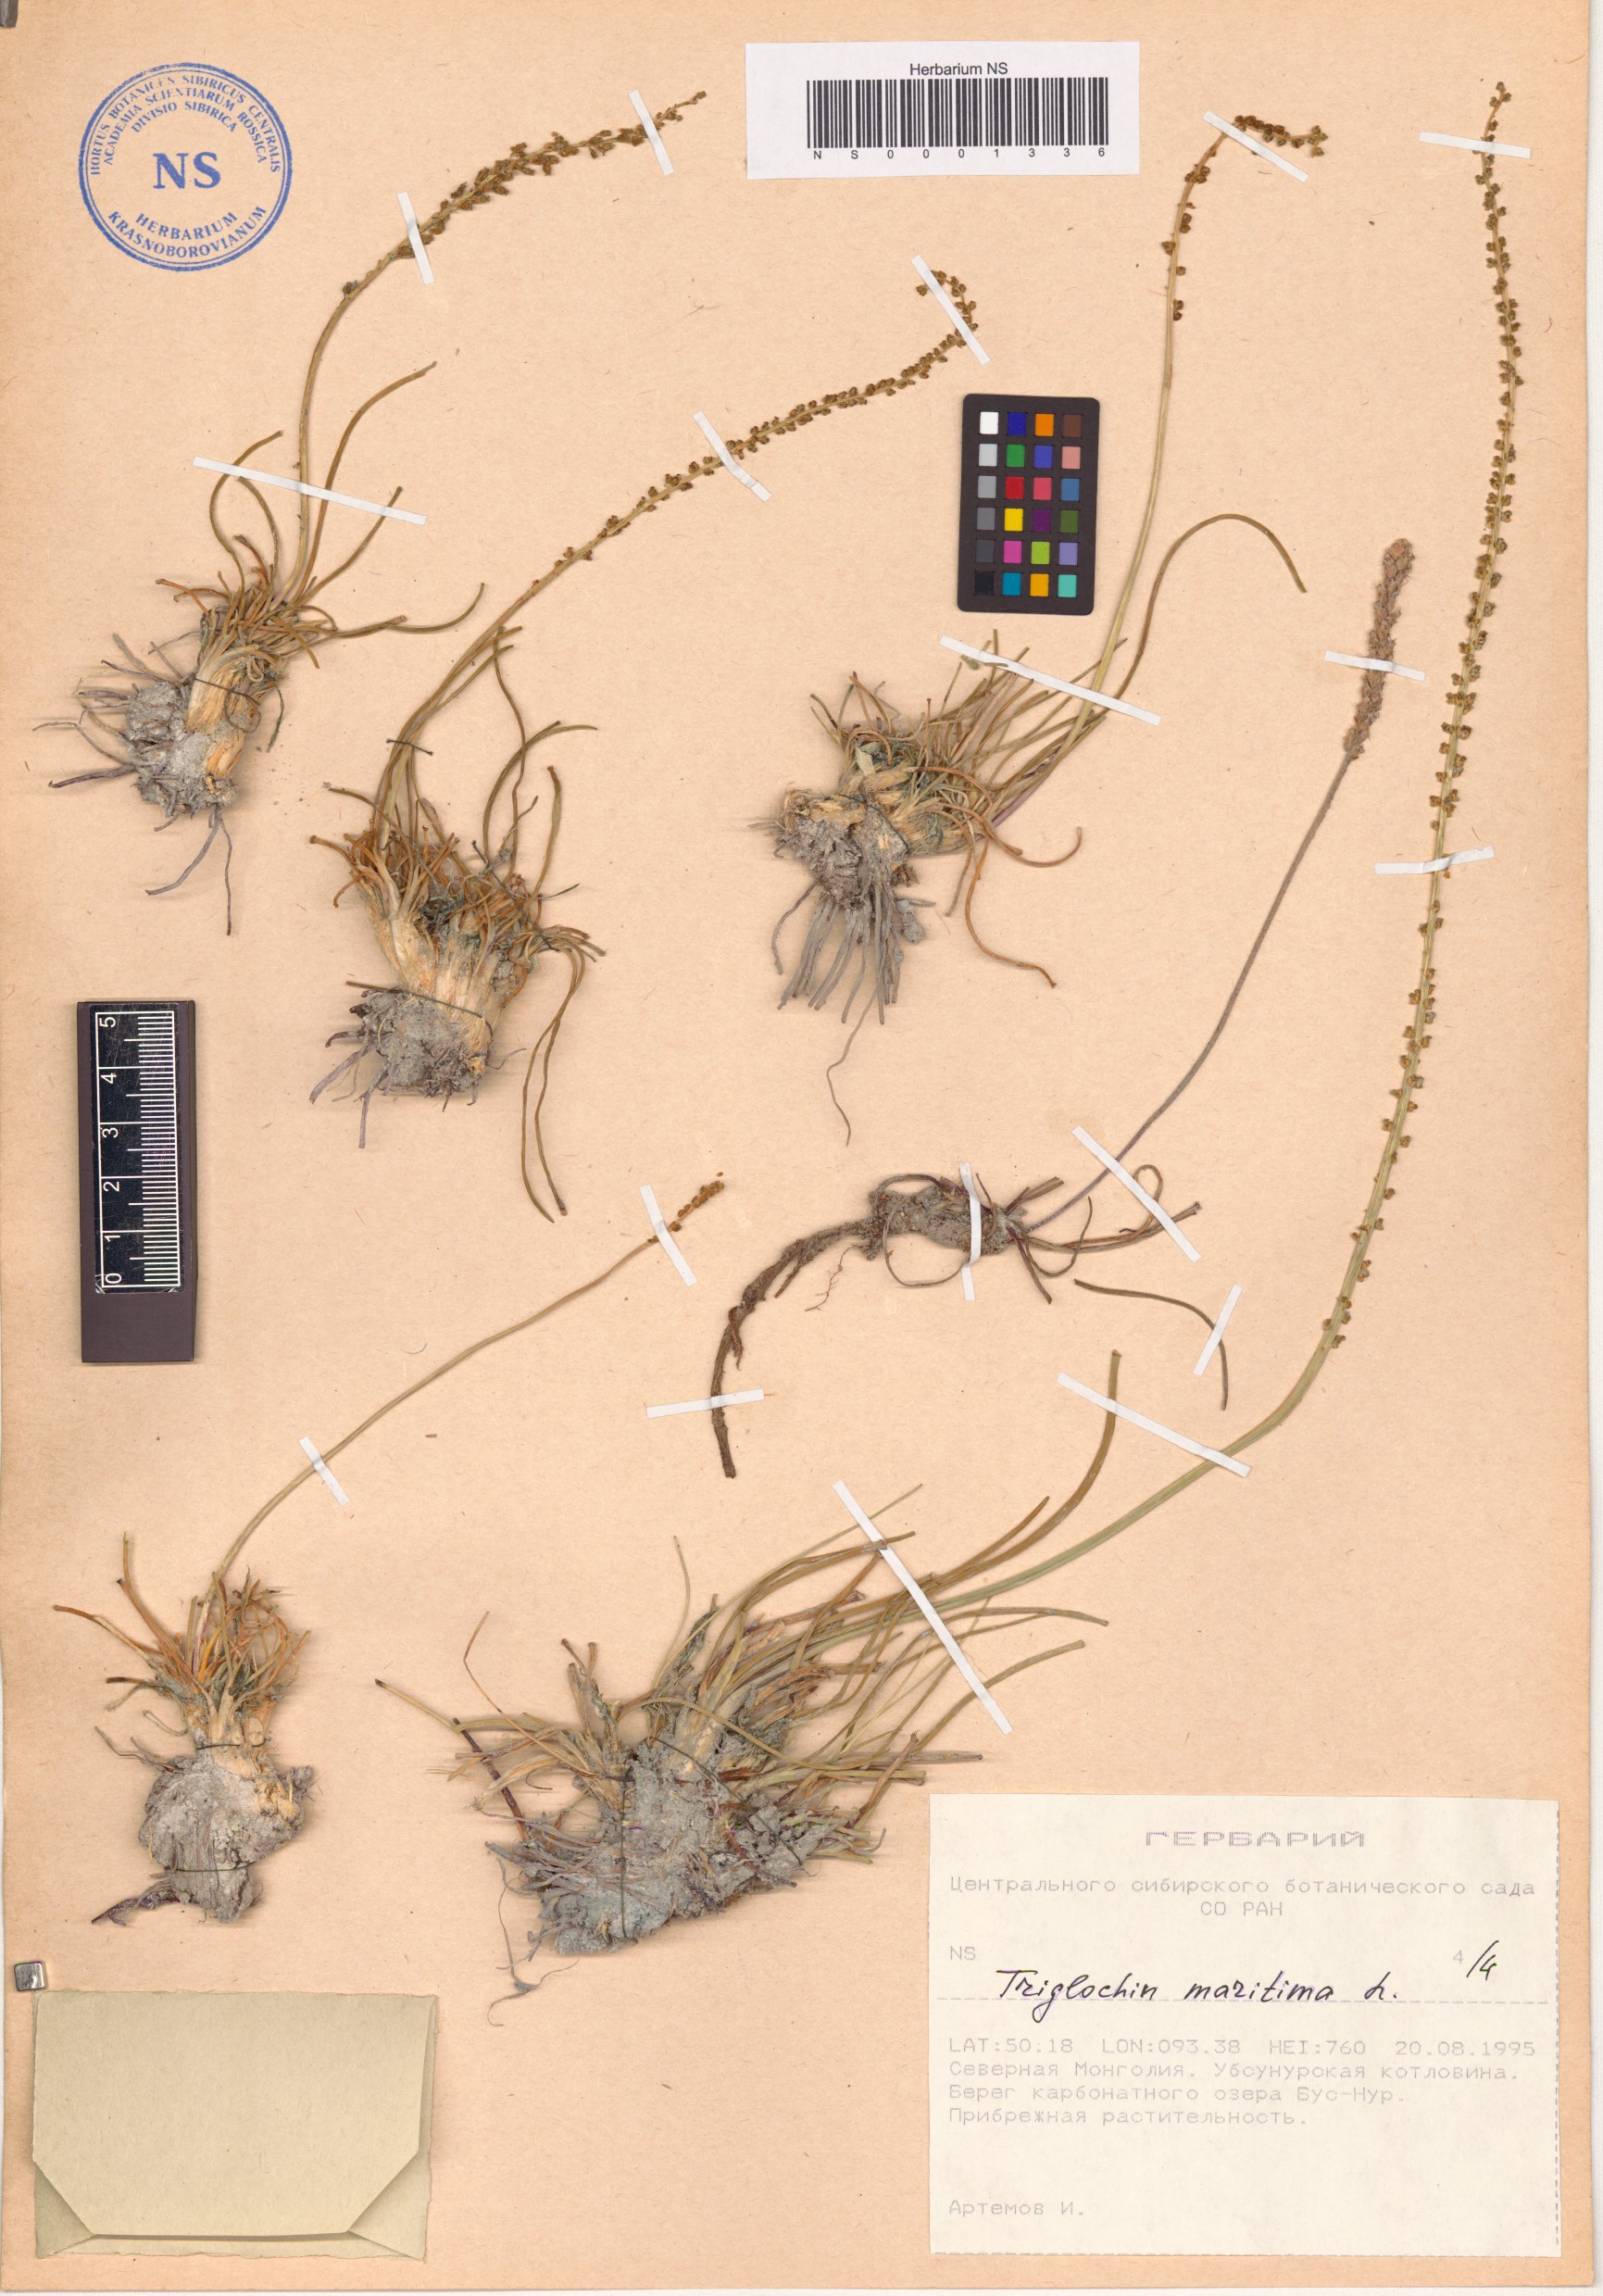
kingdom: Plantae
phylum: Tracheophyta
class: Liliopsida
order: Alismatales
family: Juncaginaceae
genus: Triglochin
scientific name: Triglochin maritima
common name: Sea arrowgrass
